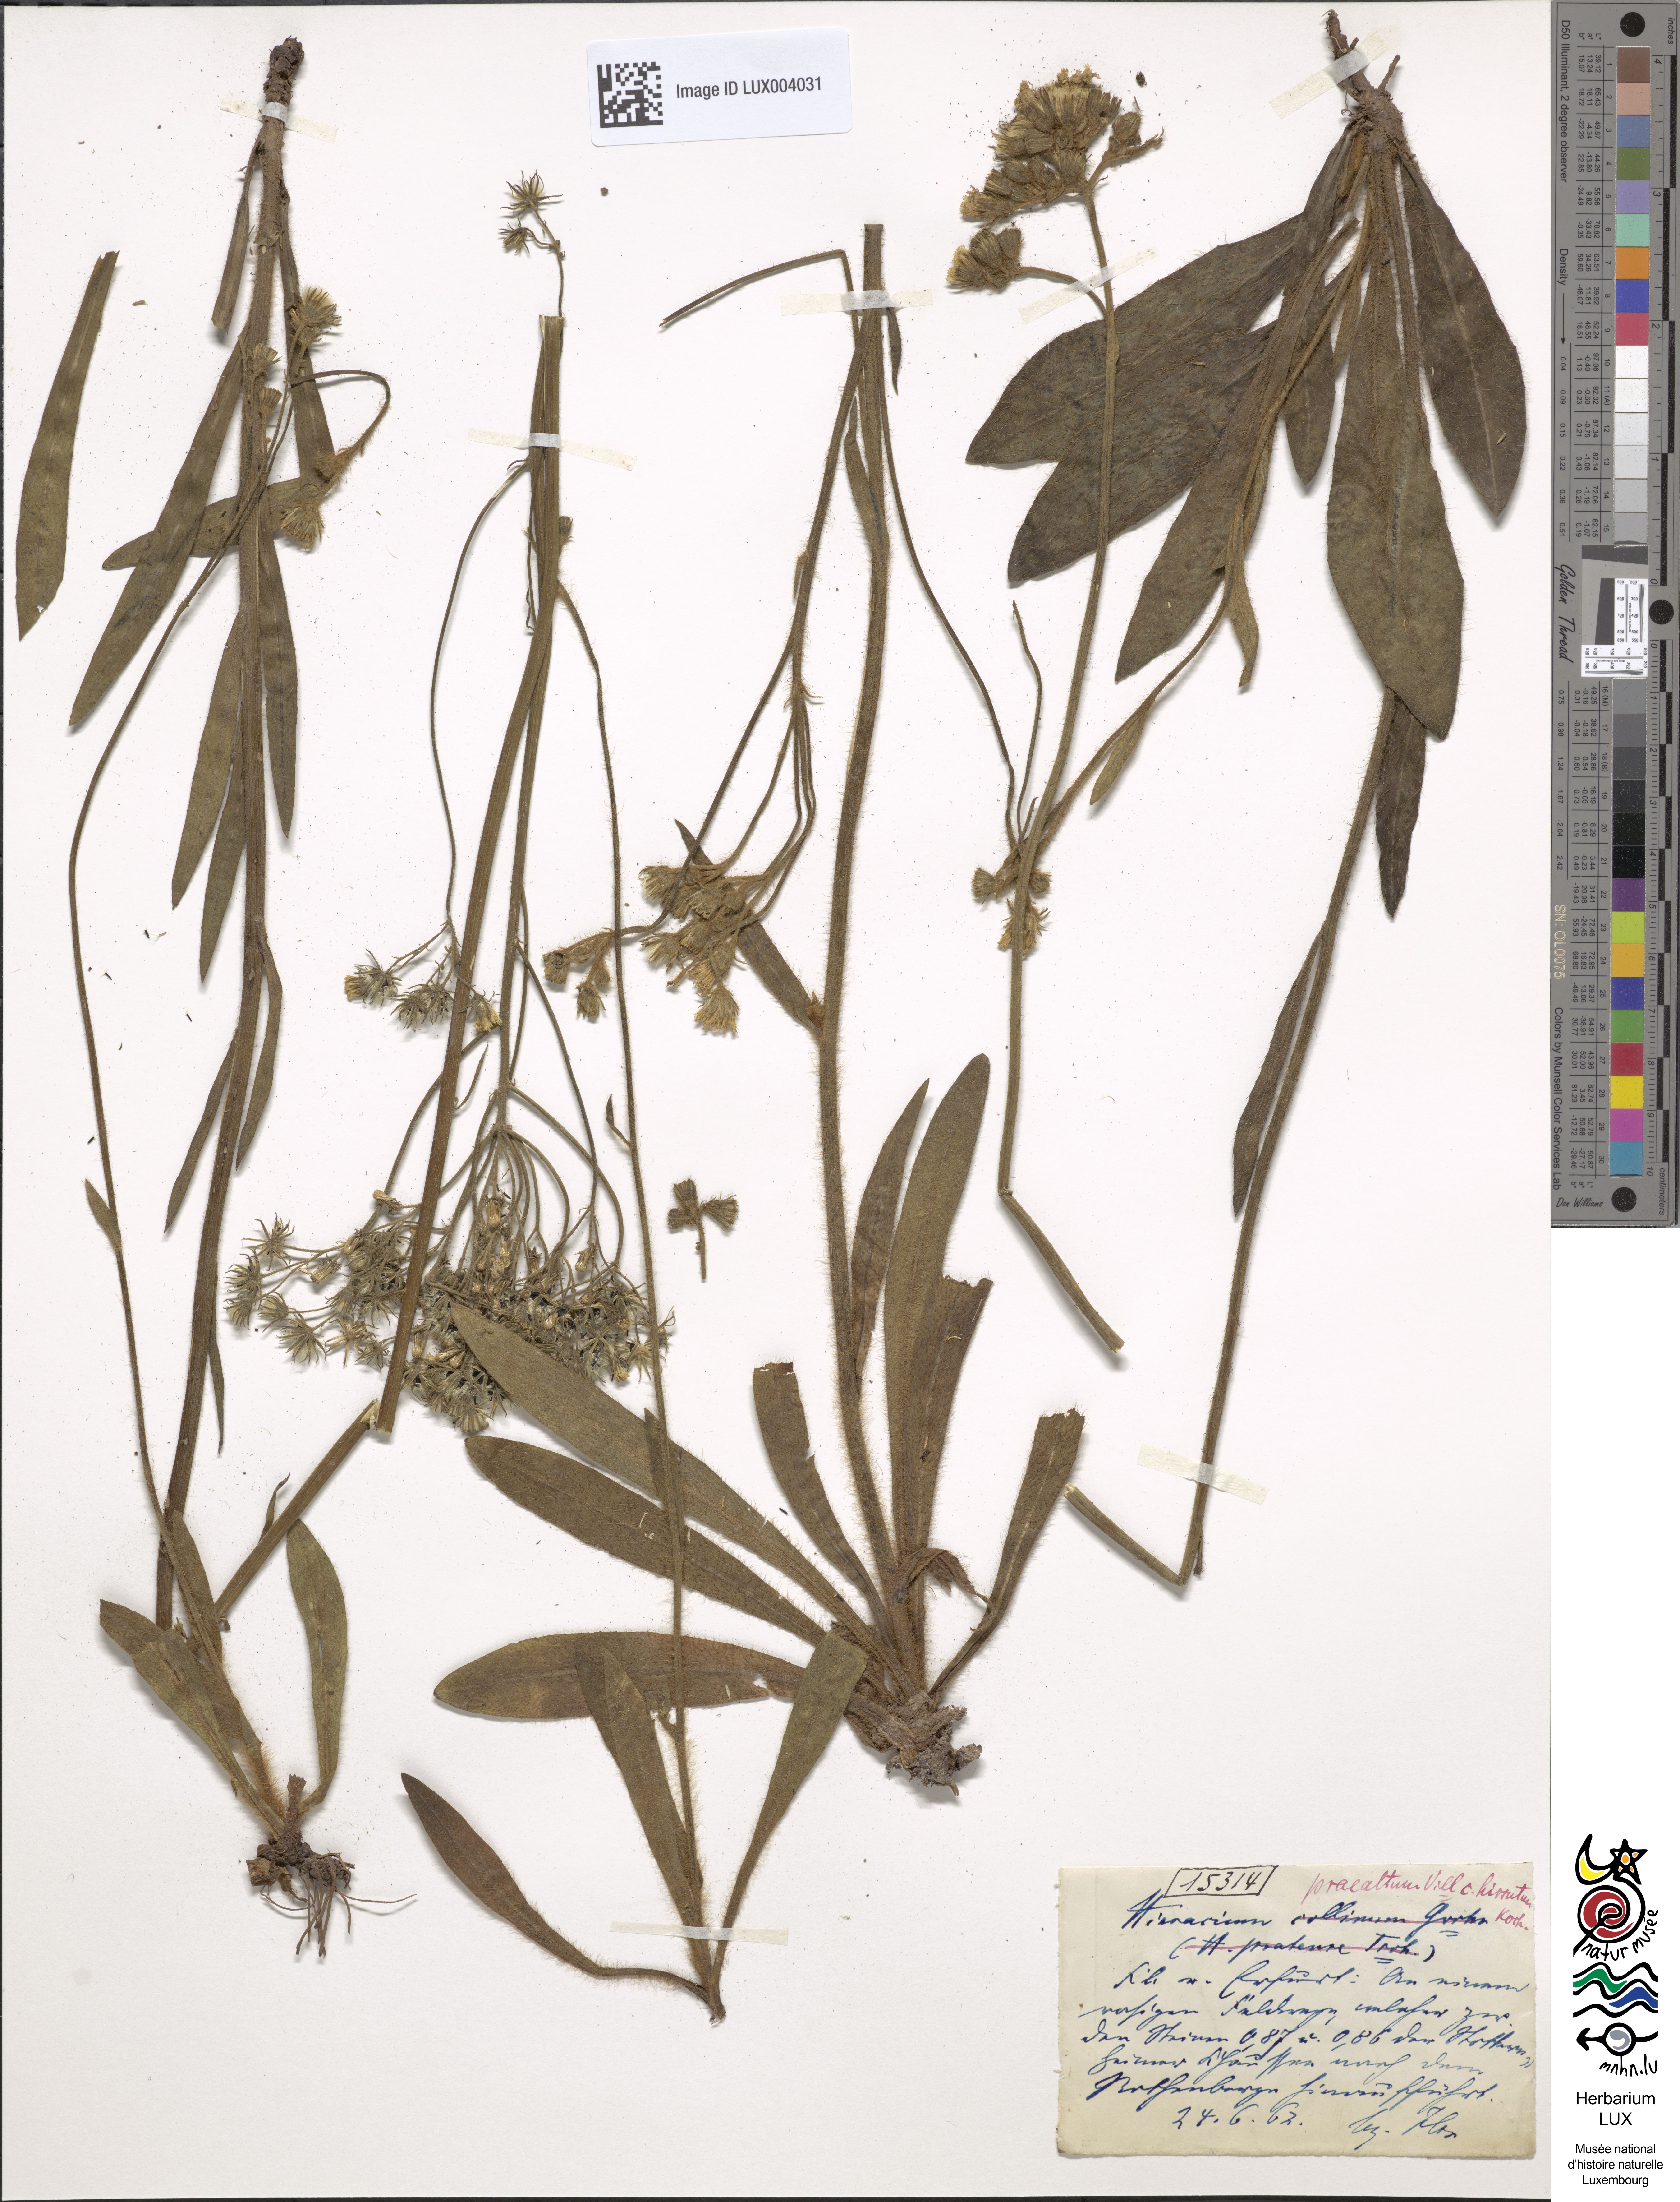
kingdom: Plantae
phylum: Tracheophyta
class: Magnoliopsida
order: Asterales
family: Asteraceae
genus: Pilosella
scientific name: Pilosella piloselloides
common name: Glaucous king-devil
